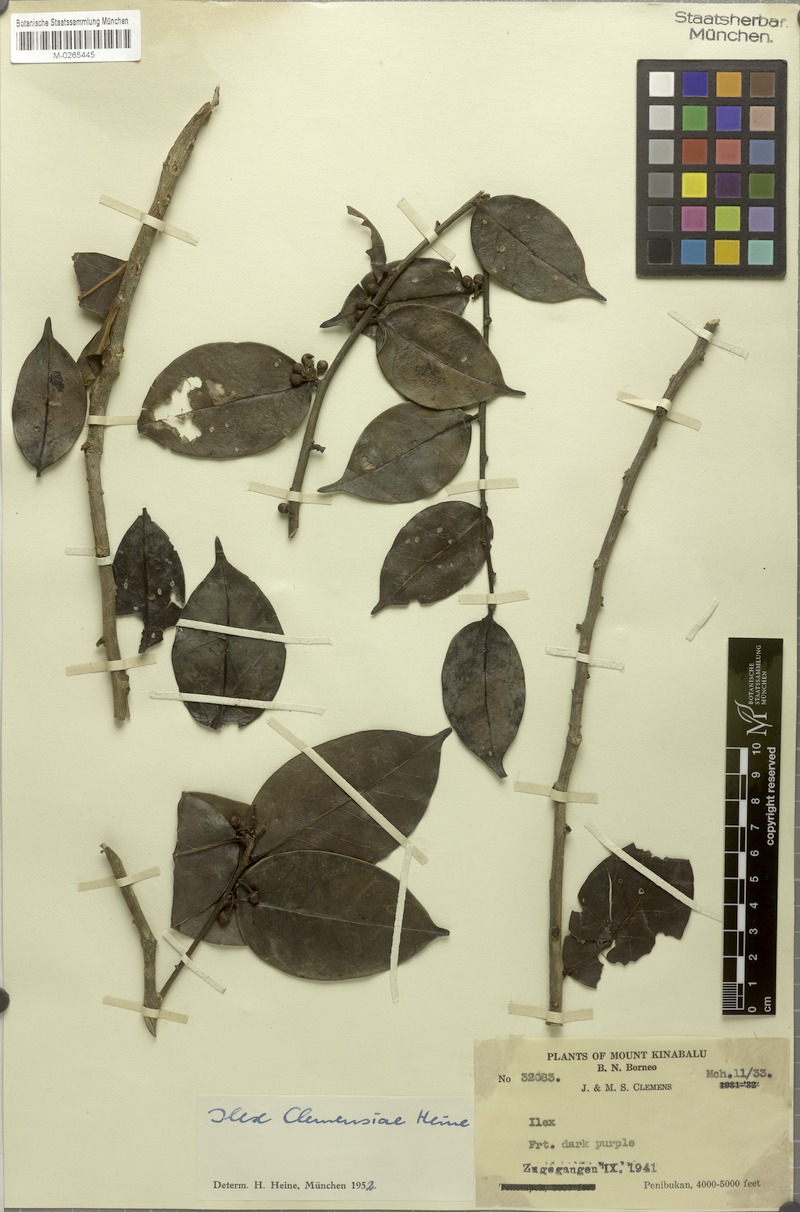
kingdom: Plantae
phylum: Tracheophyta
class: Magnoliopsida
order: Aquifoliales
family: Aquifoliaceae
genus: Ilex
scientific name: Ilex clemensiae
